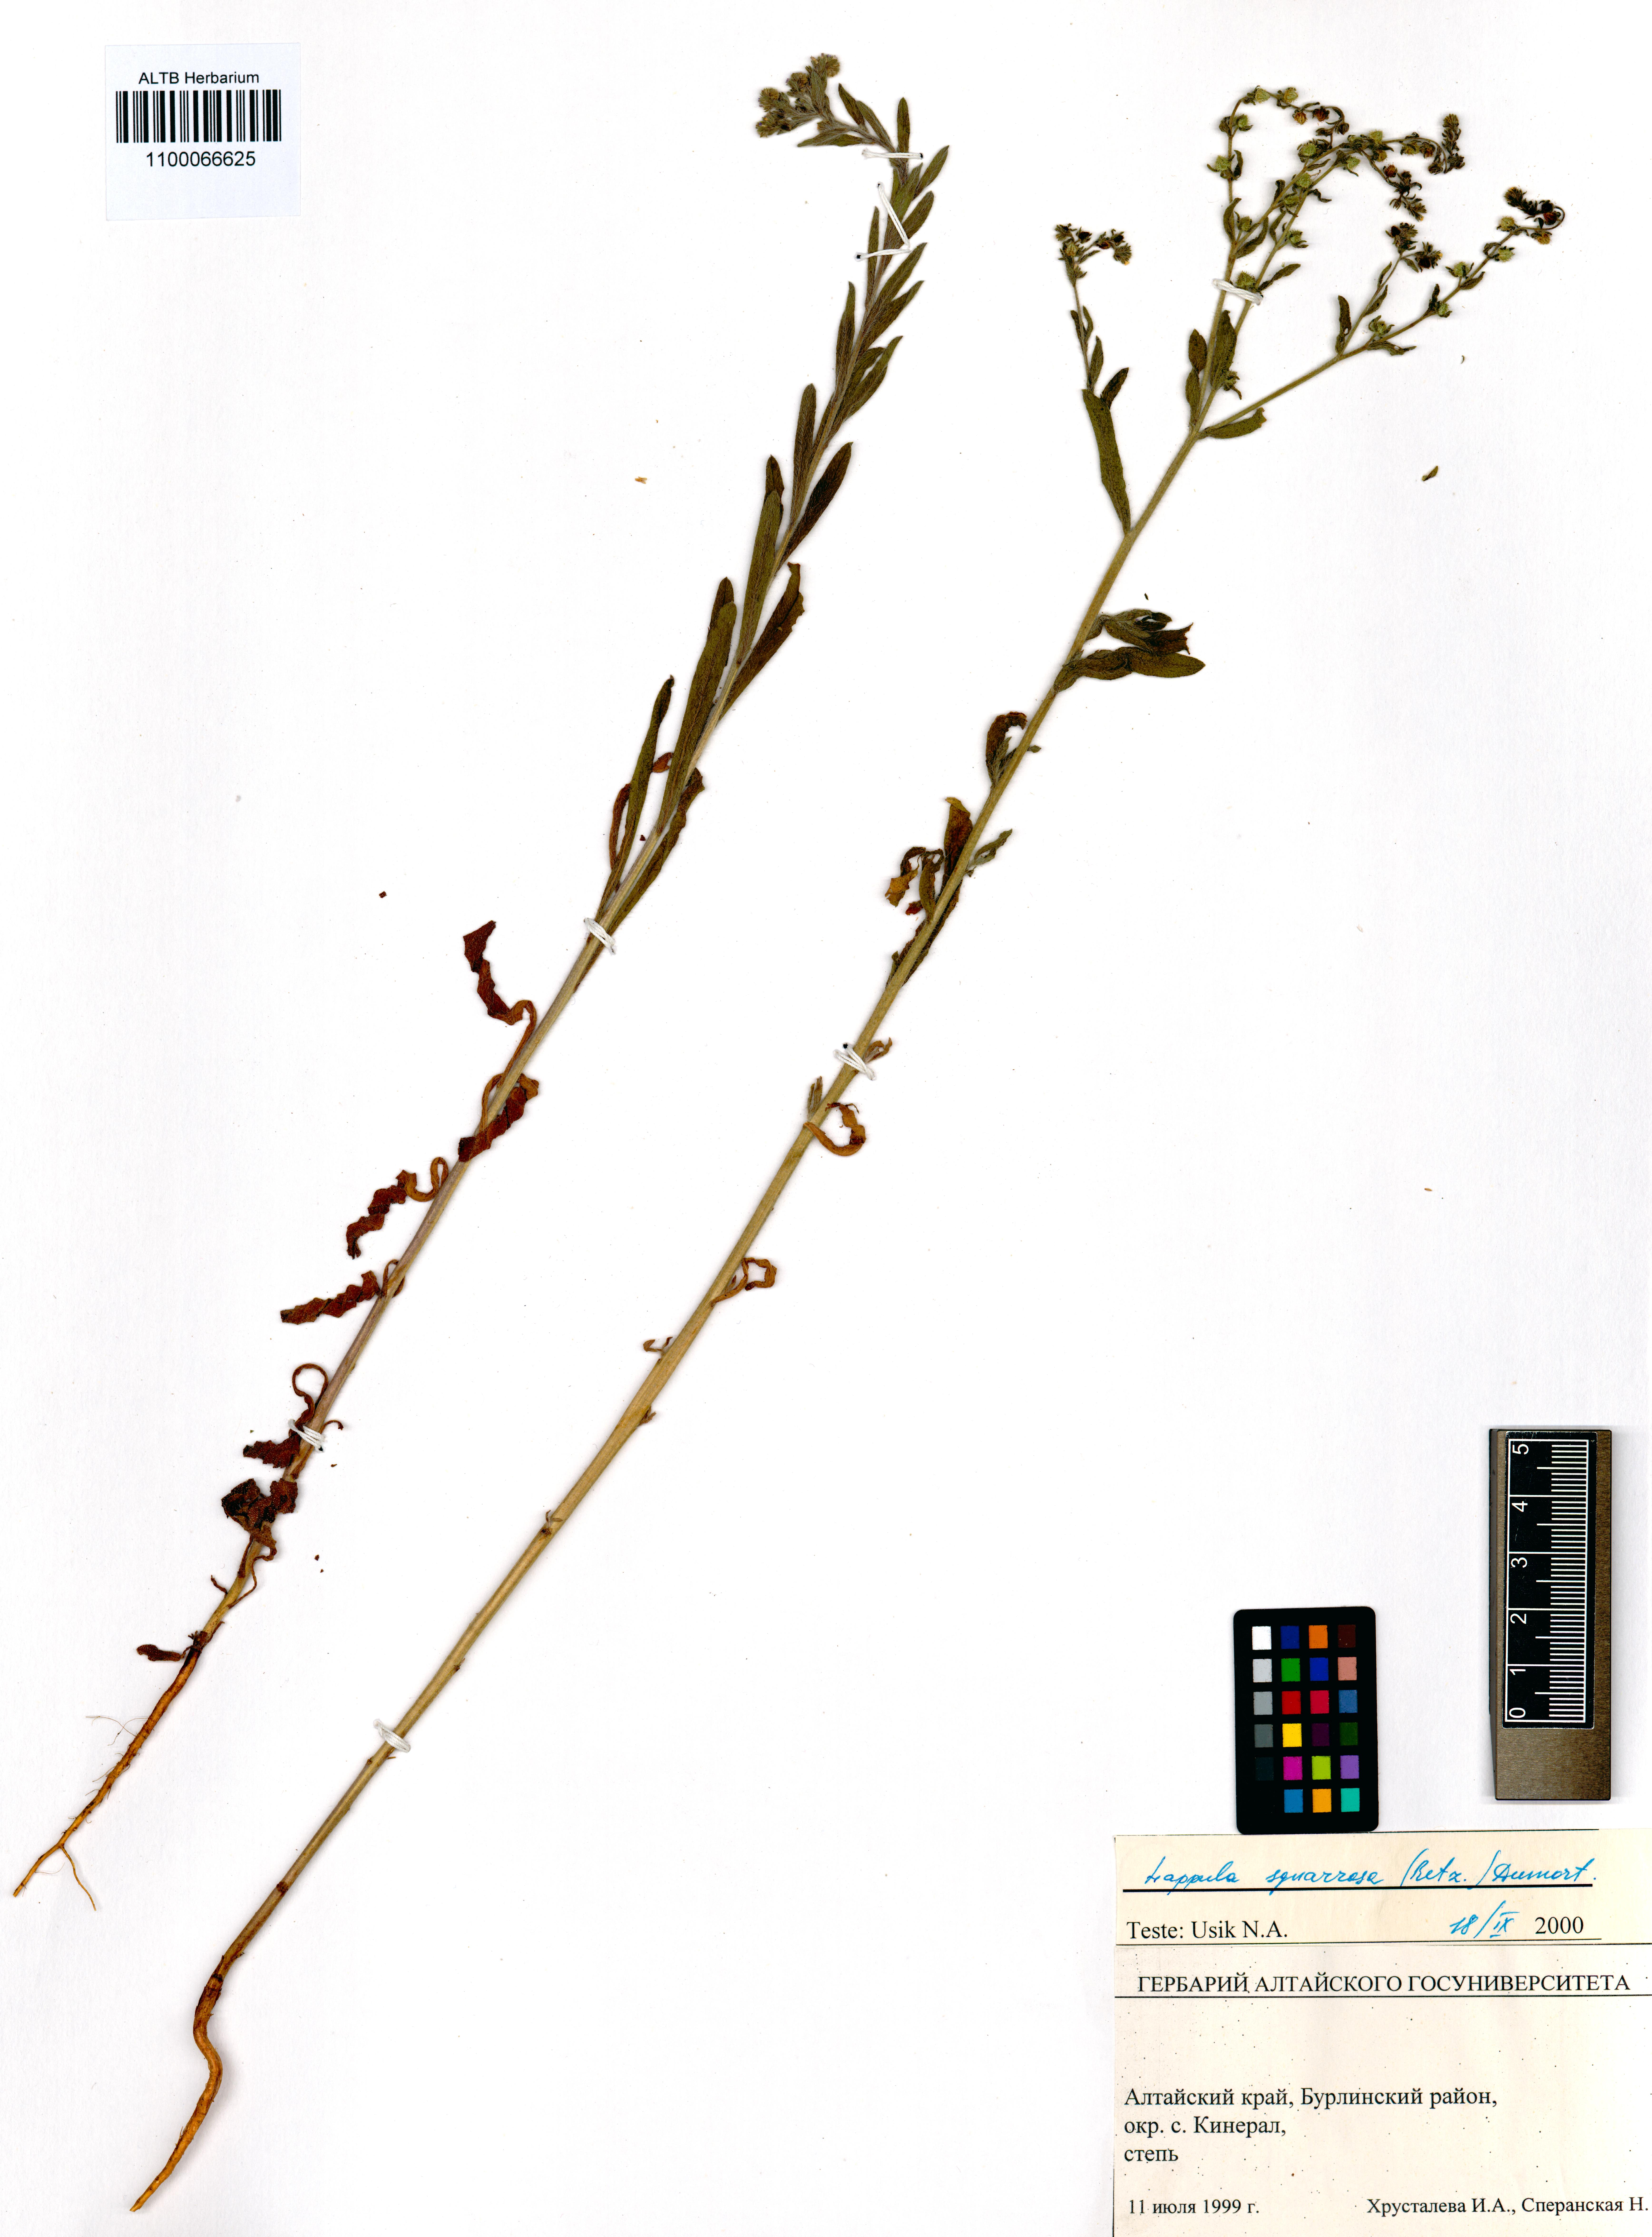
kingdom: Plantae
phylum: Tracheophyta
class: Magnoliopsida
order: Boraginales
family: Boraginaceae
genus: Lappula
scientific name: Lappula squarrosa
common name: European stickseed
